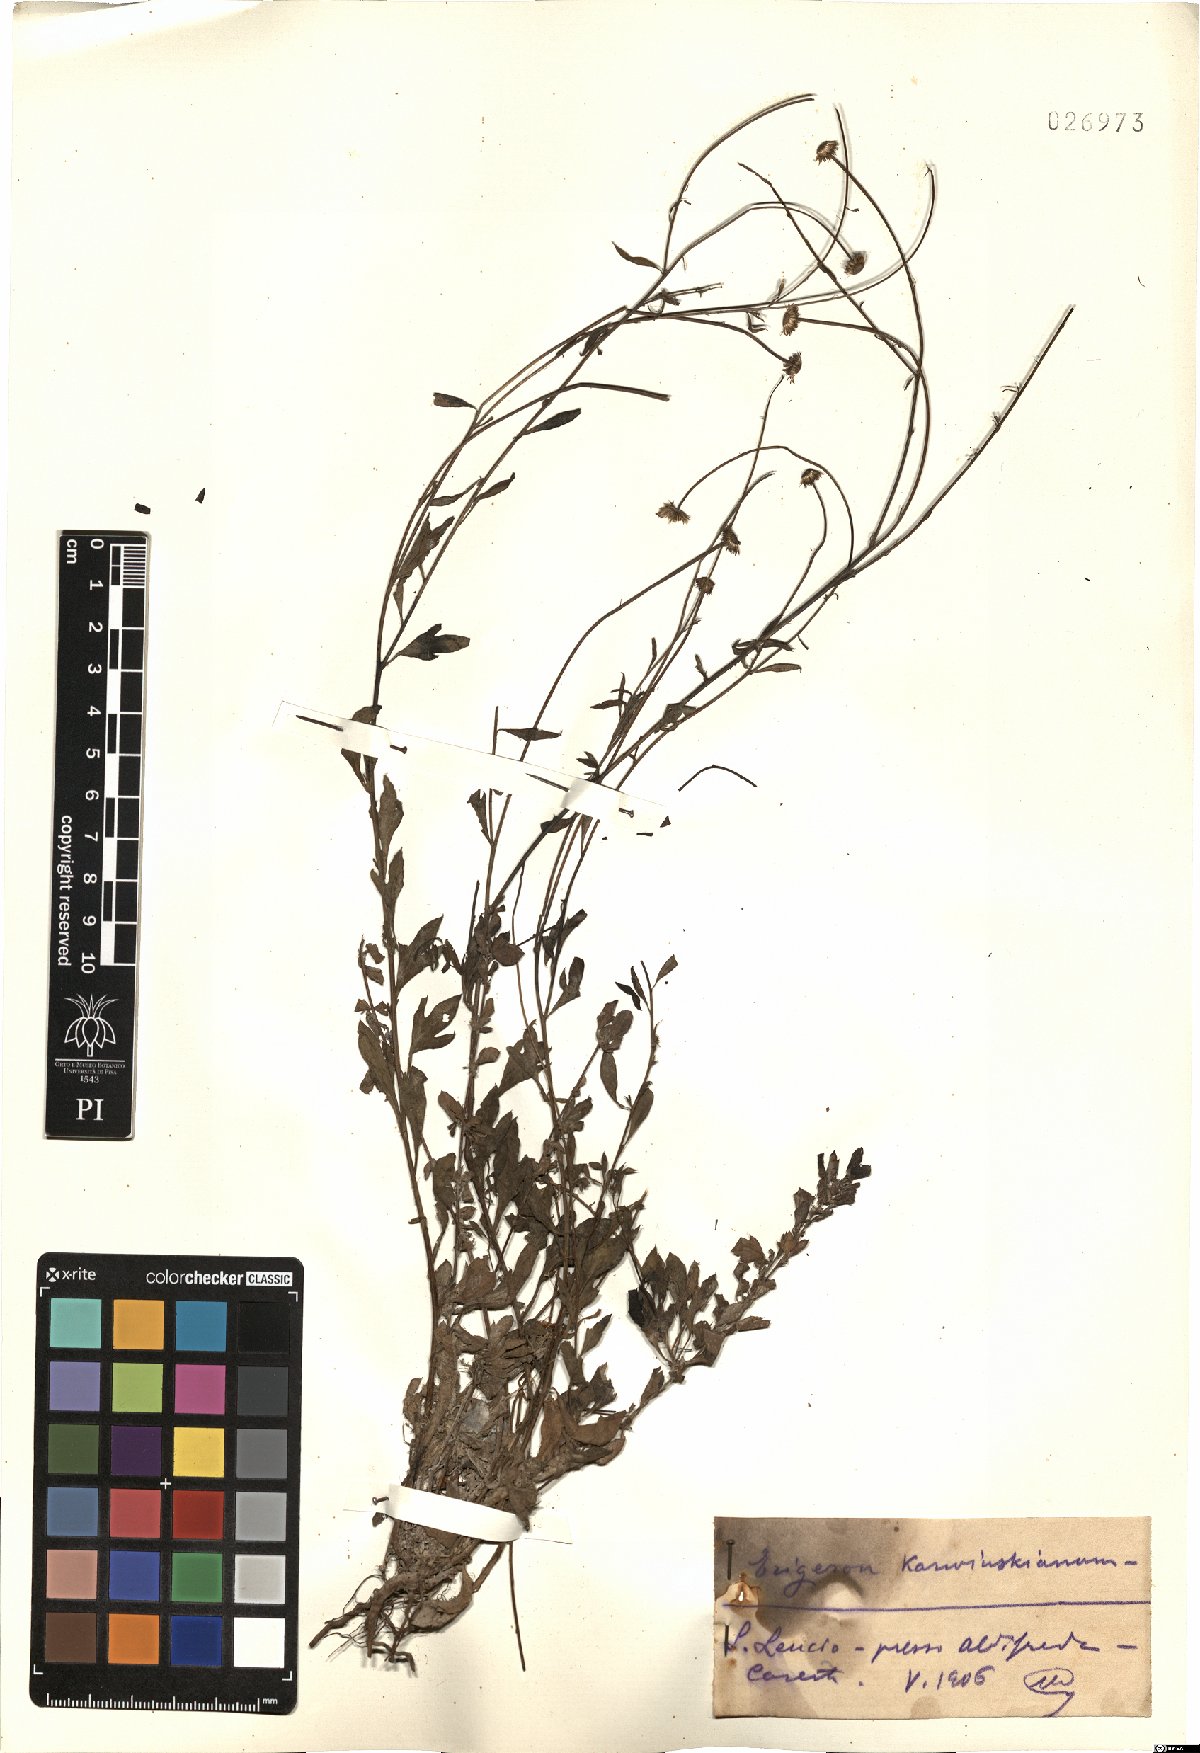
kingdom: Plantae
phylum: Tracheophyta
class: Magnoliopsida
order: Asterales
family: Asteraceae
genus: Erigeron
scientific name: Erigeron karvinskianus
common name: Mexican fleabane
